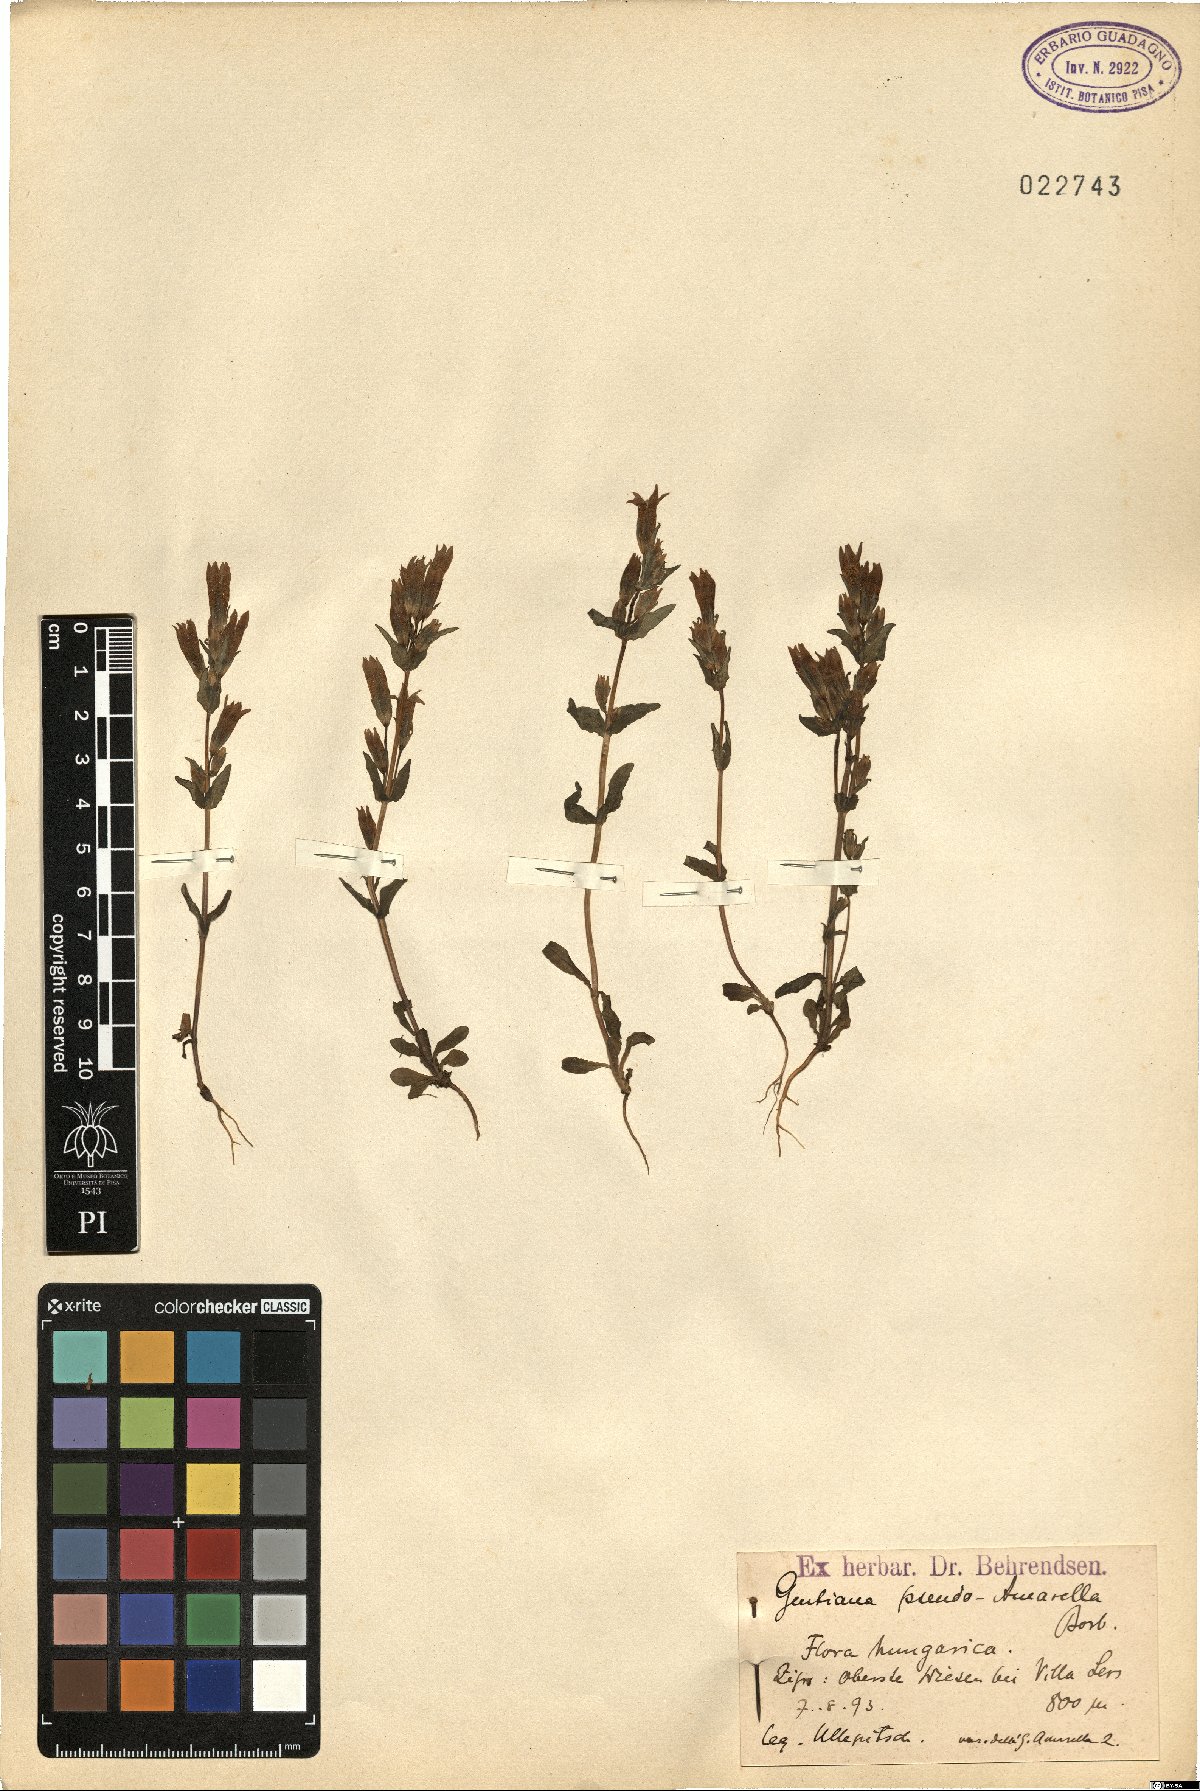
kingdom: Plantae
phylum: Tracheophyta
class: Magnoliopsida
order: Gentianales
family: Gentianaceae
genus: Gentianella
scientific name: Gentianella aurea
